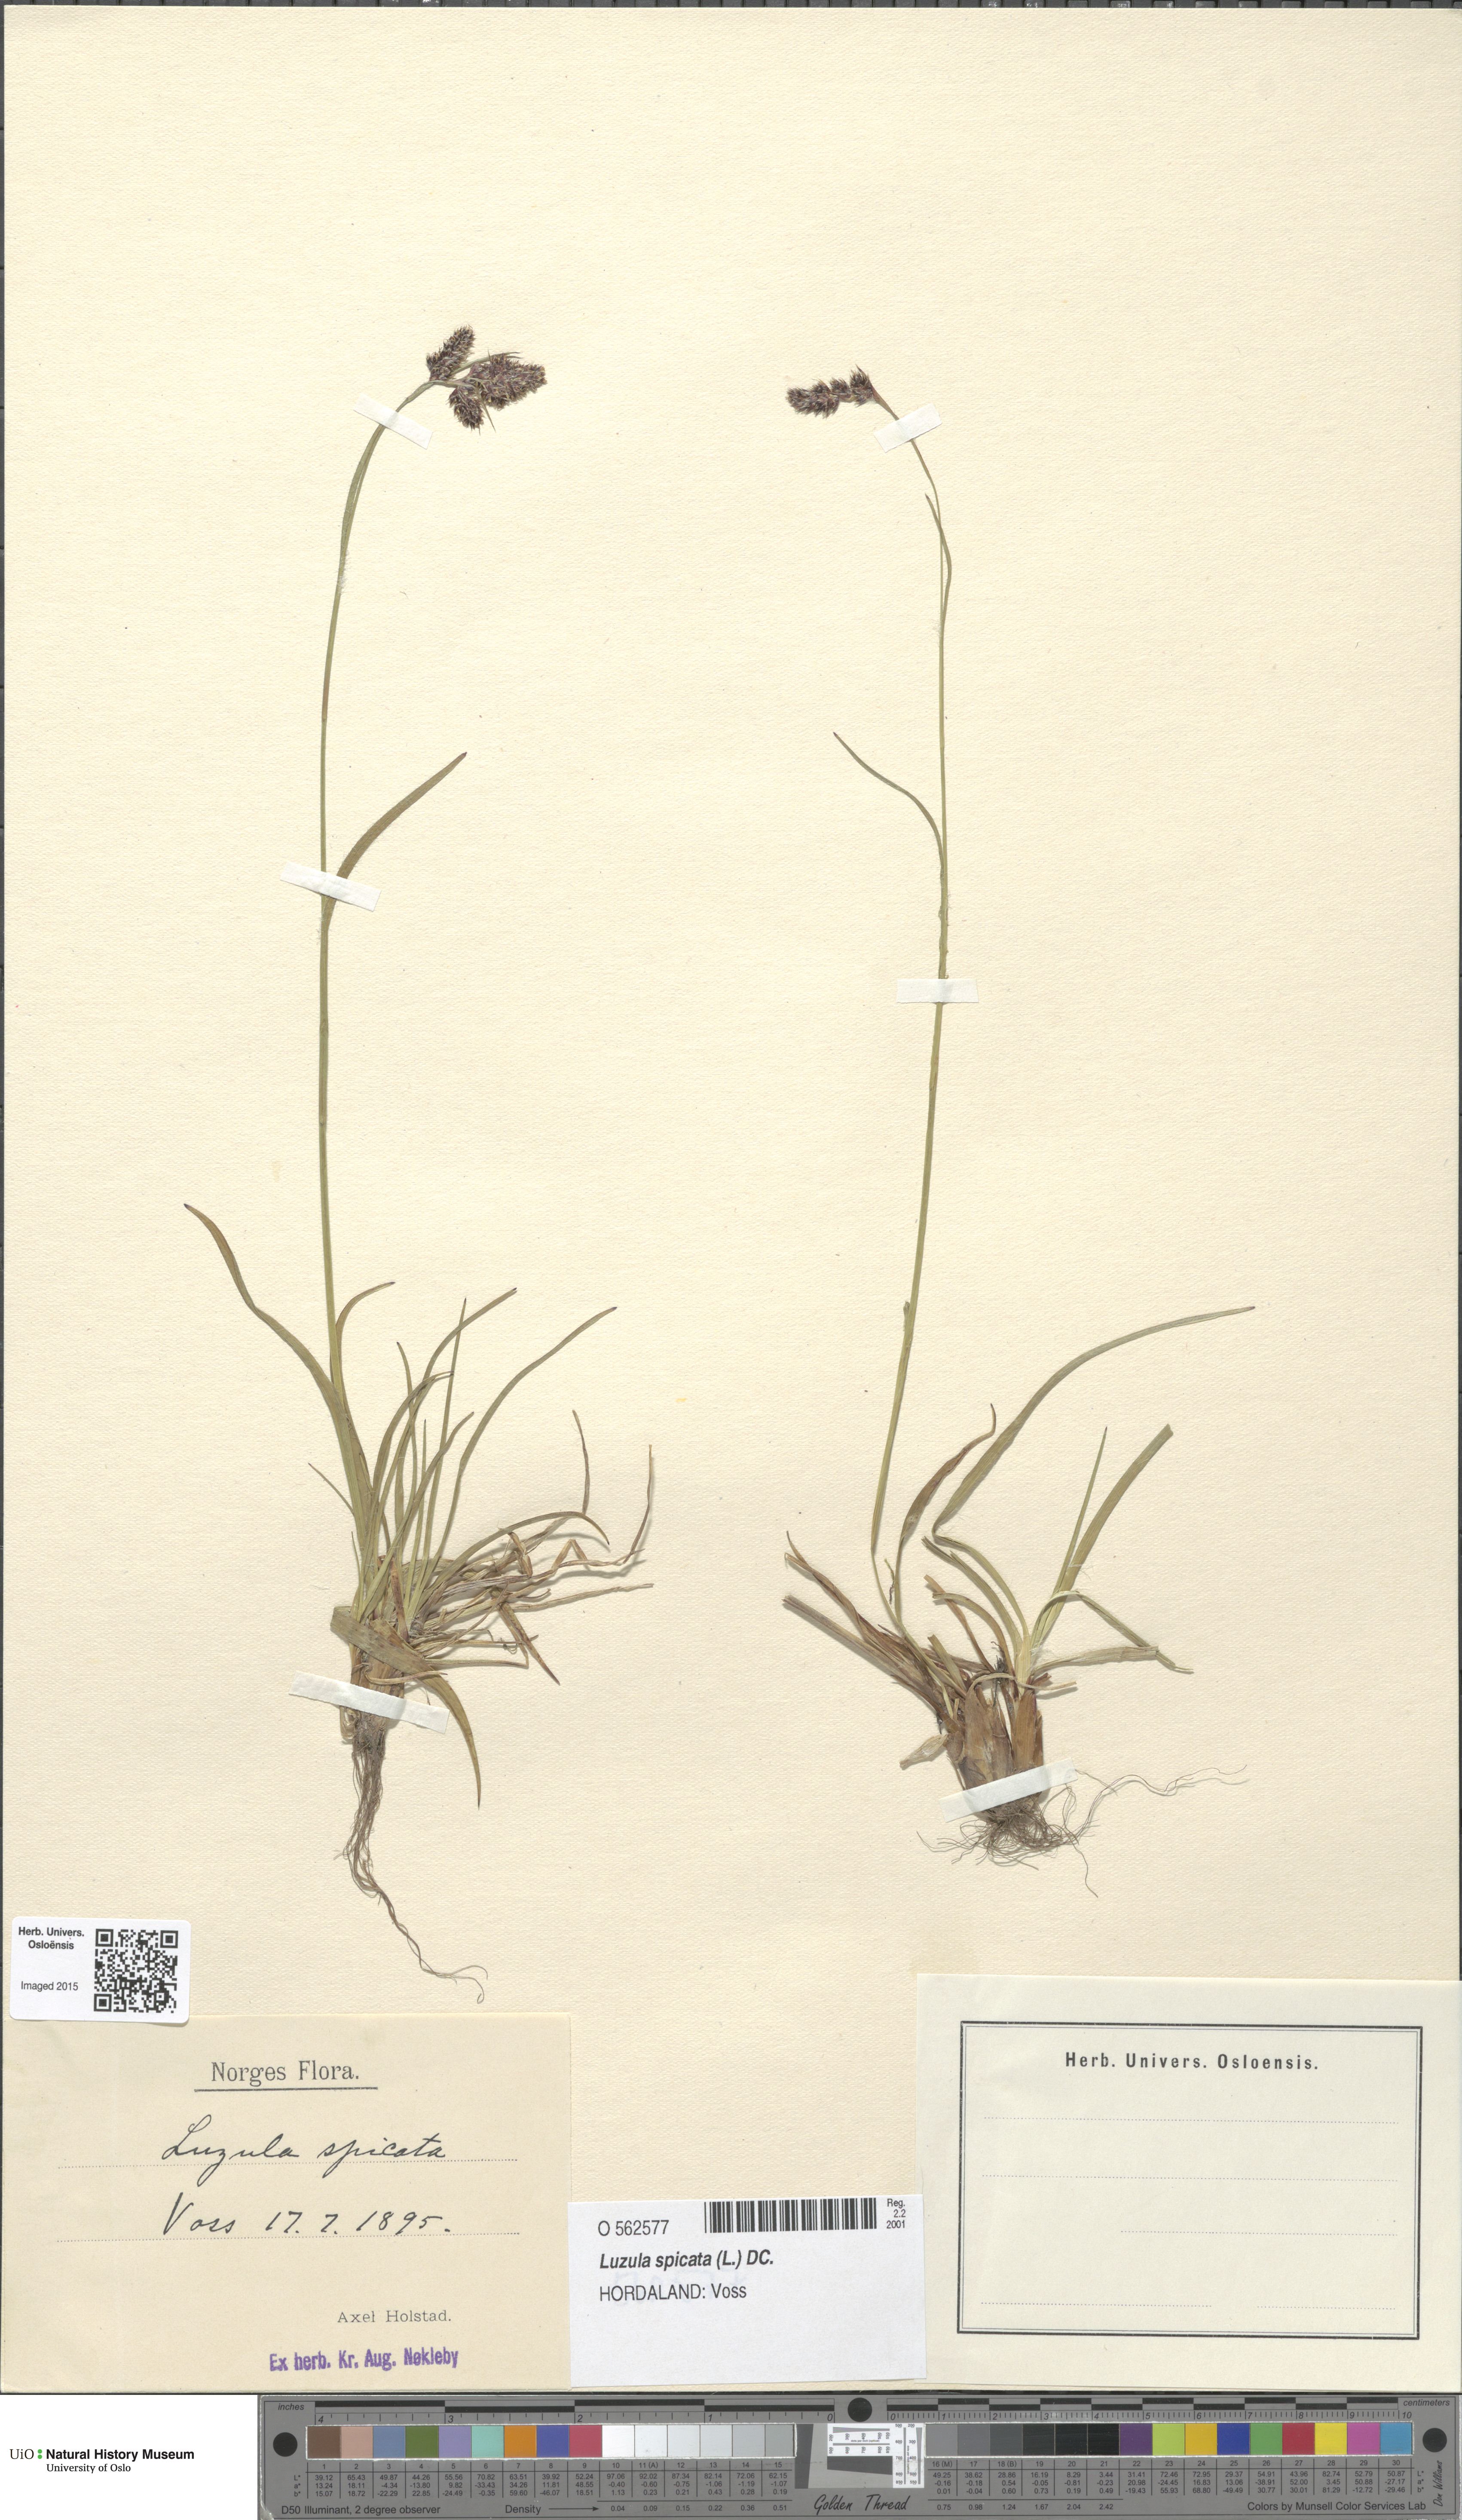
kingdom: Plantae
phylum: Tracheophyta
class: Liliopsida
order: Poales
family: Juncaceae
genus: Luzula
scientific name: Luzula spicata
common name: Spiked wood-rush
